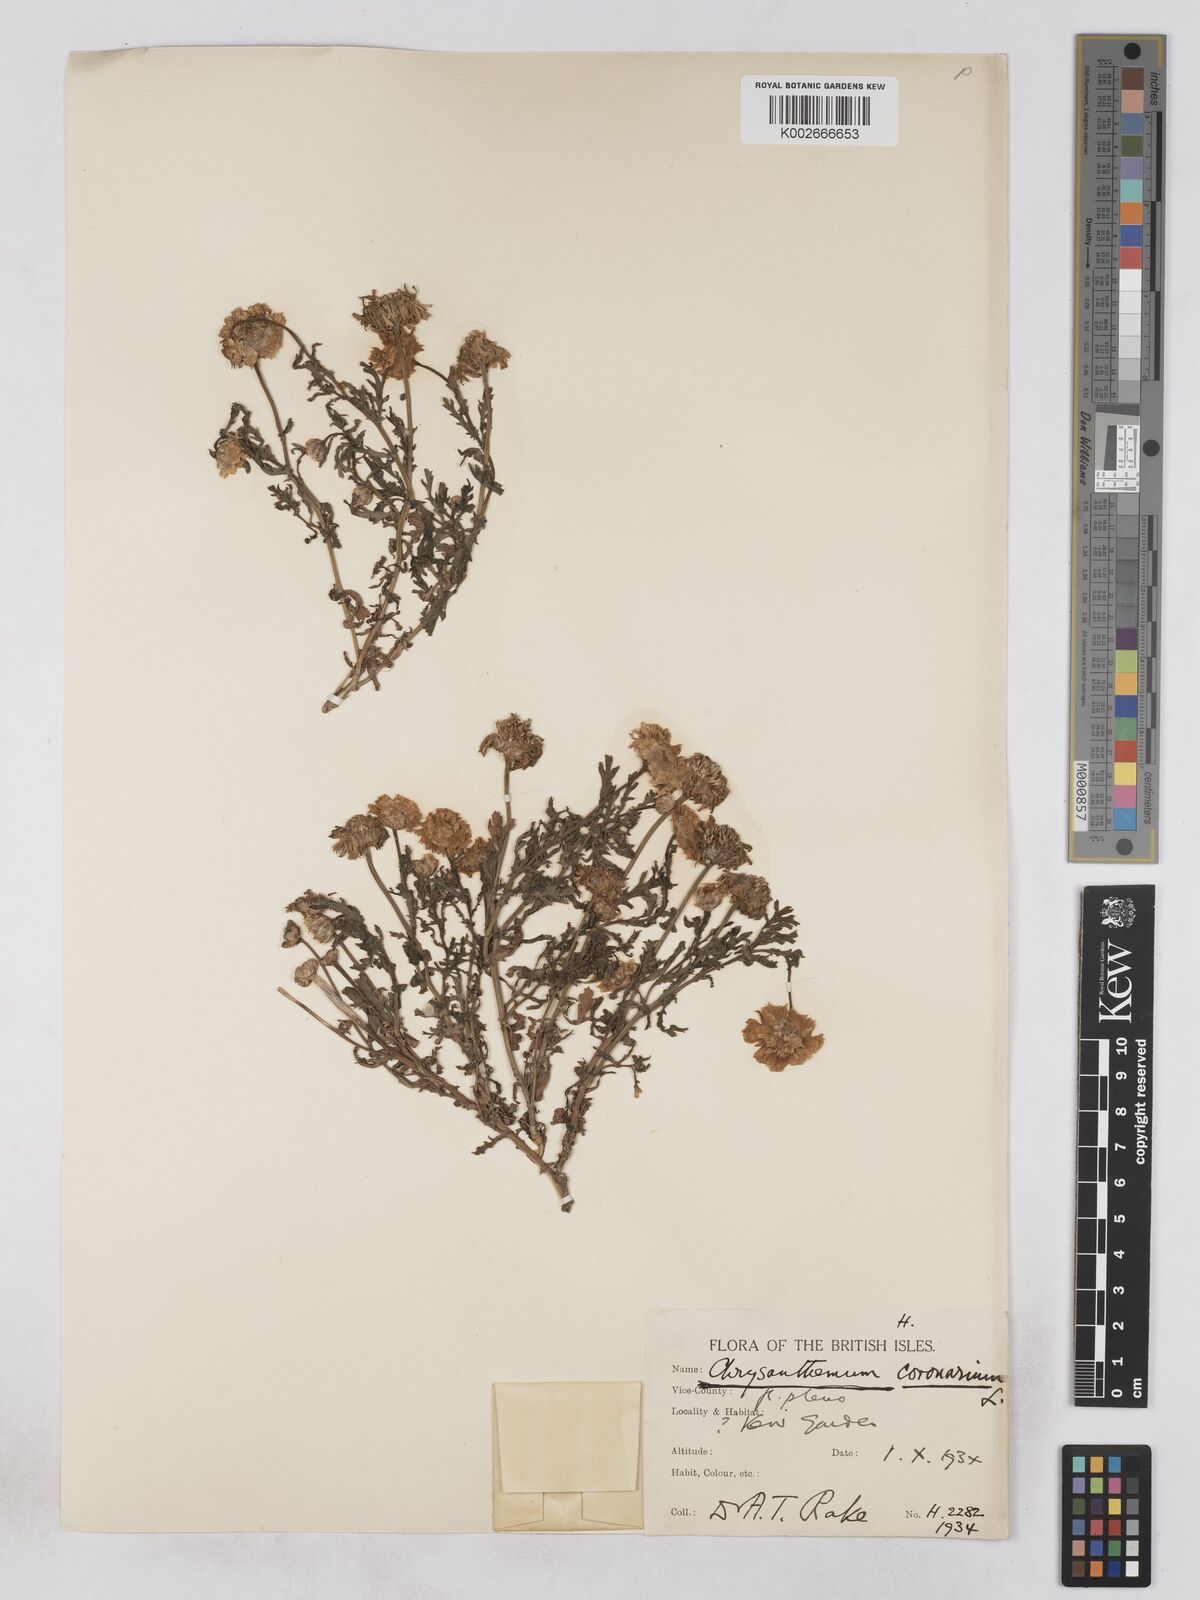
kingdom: Plantae
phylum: Tracheophyta
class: Magnoliopsida
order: Asterales
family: Asteraceae
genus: Glebionis
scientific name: Glebionis coronaria
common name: Crowndaisy
